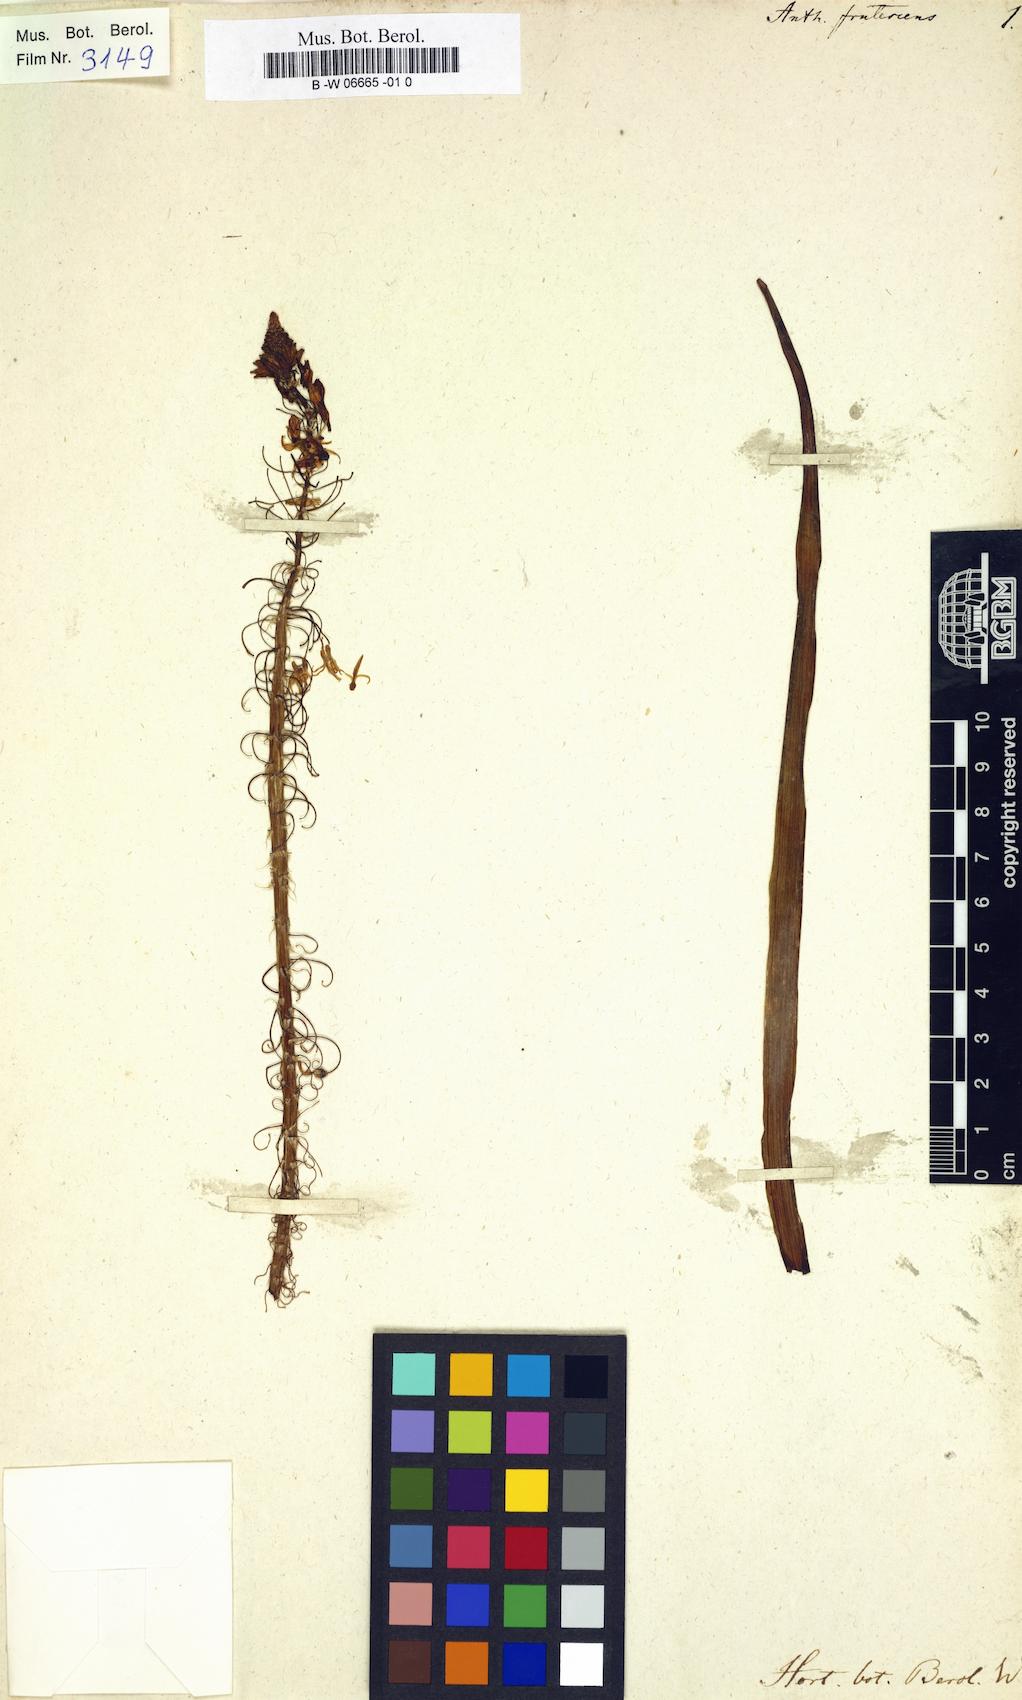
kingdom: Plantae
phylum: Tracheophyta
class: Liliopsida
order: Asparagales
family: Asphodelaceae
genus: Bulbine
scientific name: Bulbine frutescens
